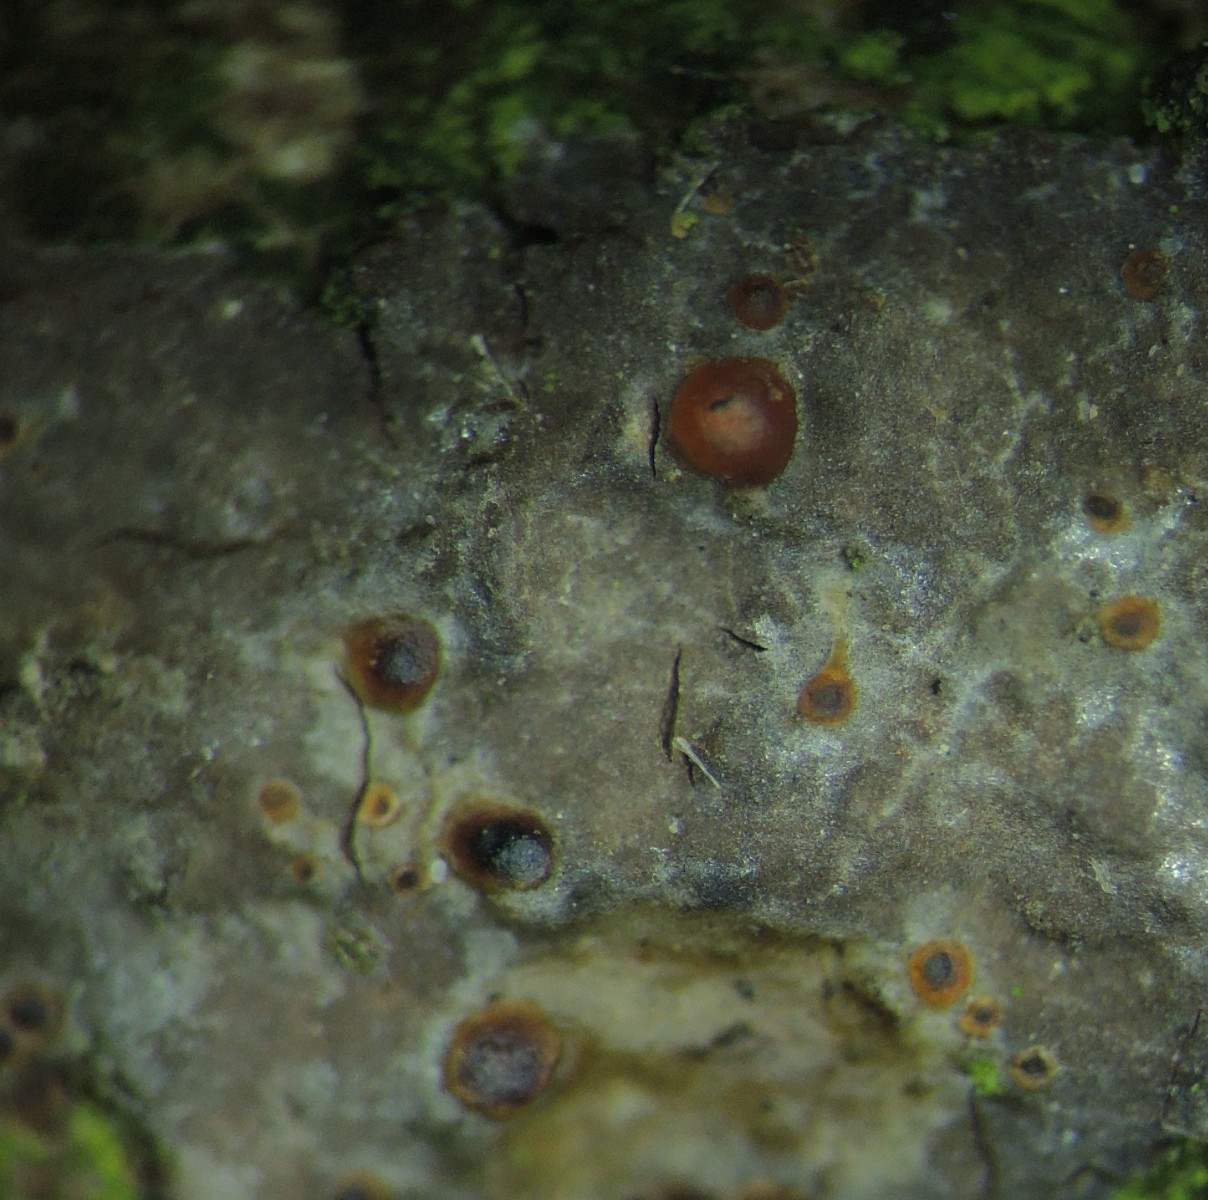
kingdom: Fungi
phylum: Basidiomycota
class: Tremellomycetes
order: Tremellales
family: Tremellaceae
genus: Tremella
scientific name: Tremella versicolor
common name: voksskind-bævresvamp
